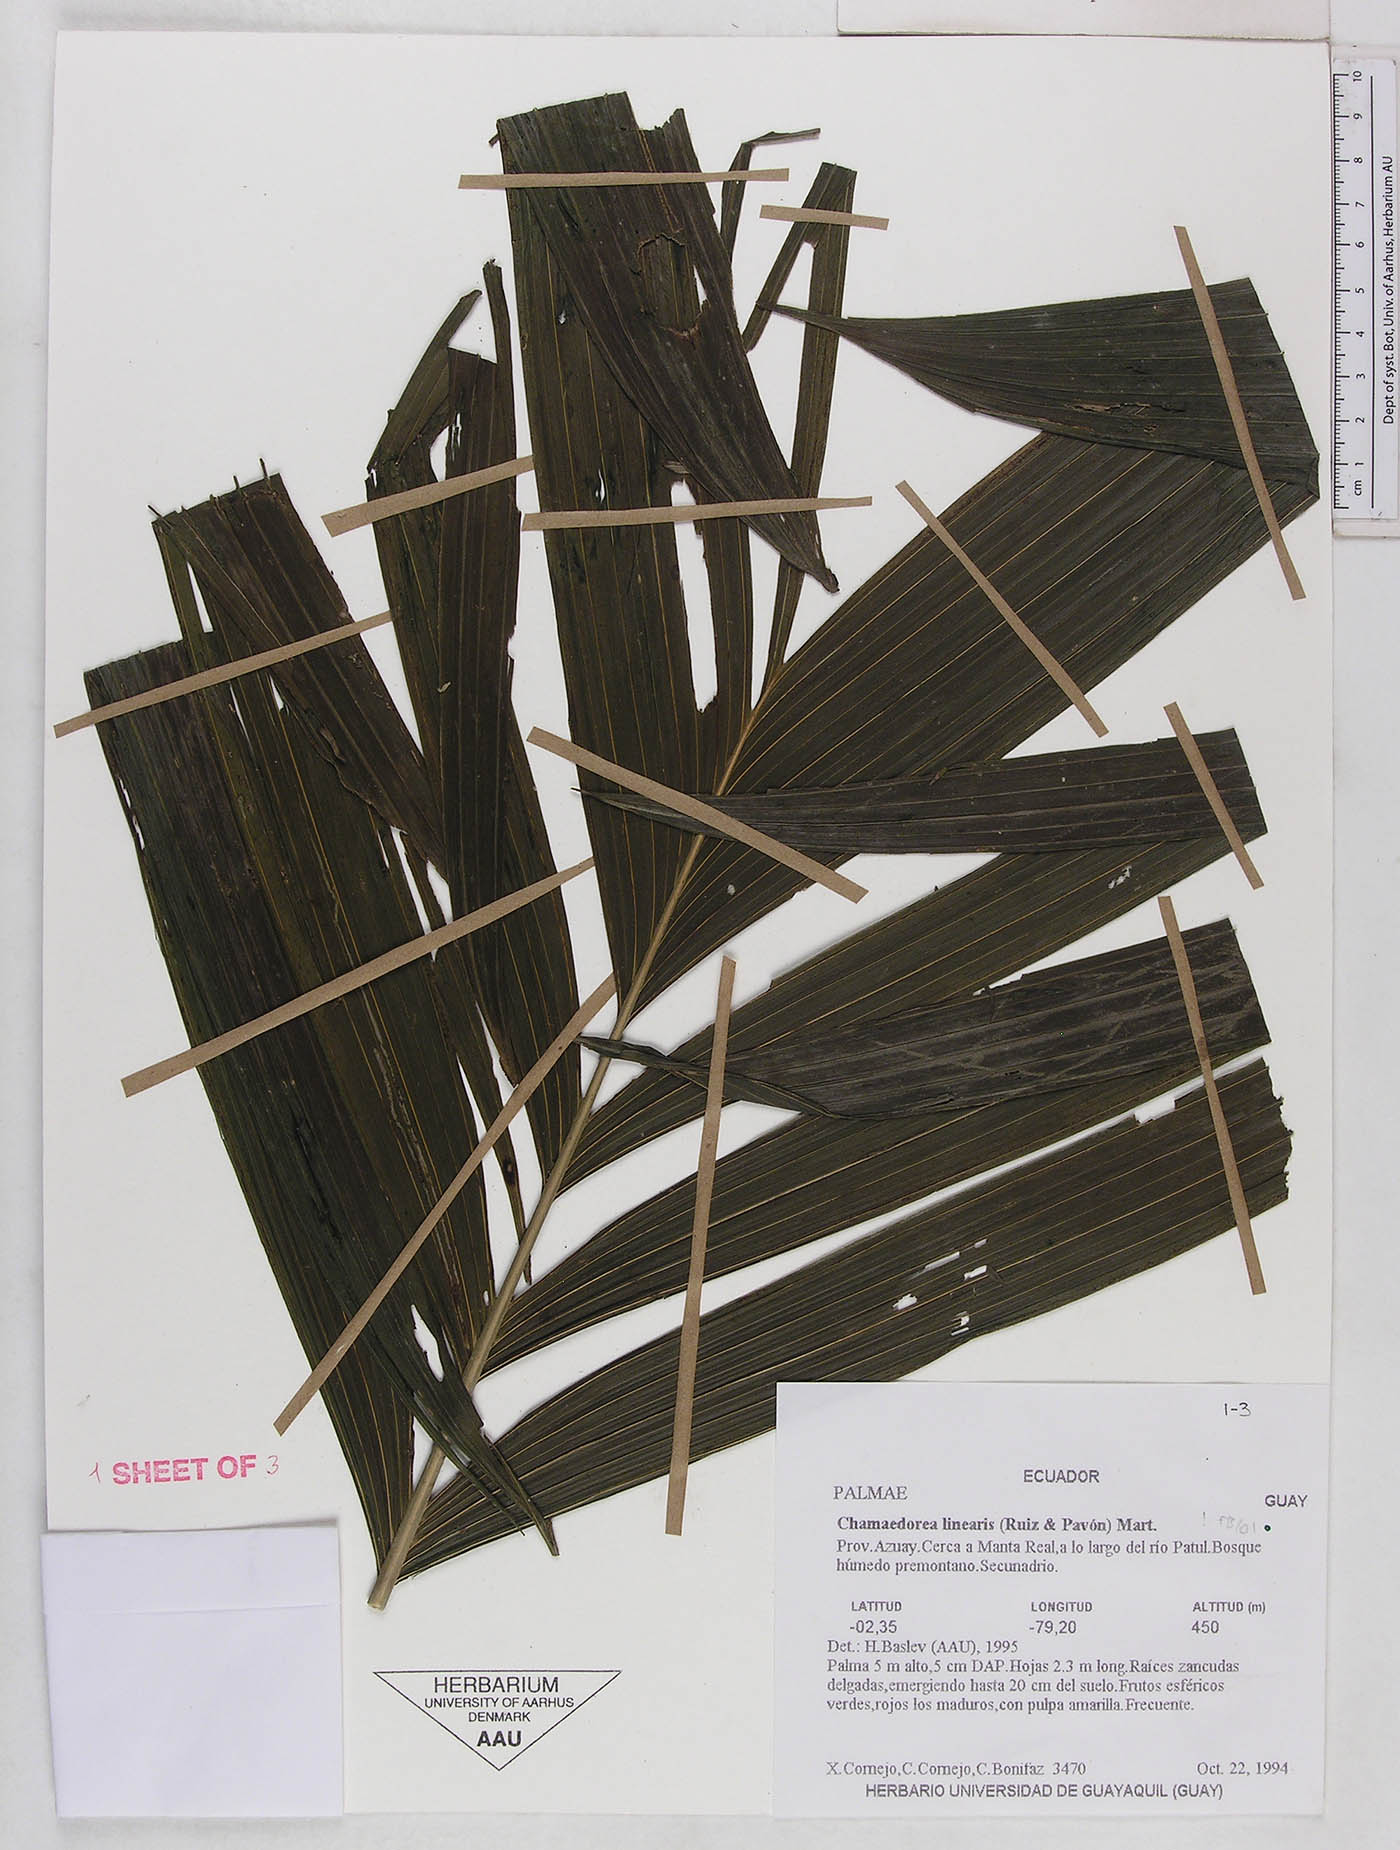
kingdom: Plantae
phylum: Tracheophyta
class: Liliopsida
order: Arecales
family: Arecaceae
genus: Chamaedorea
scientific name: Chamaedorea linearis
